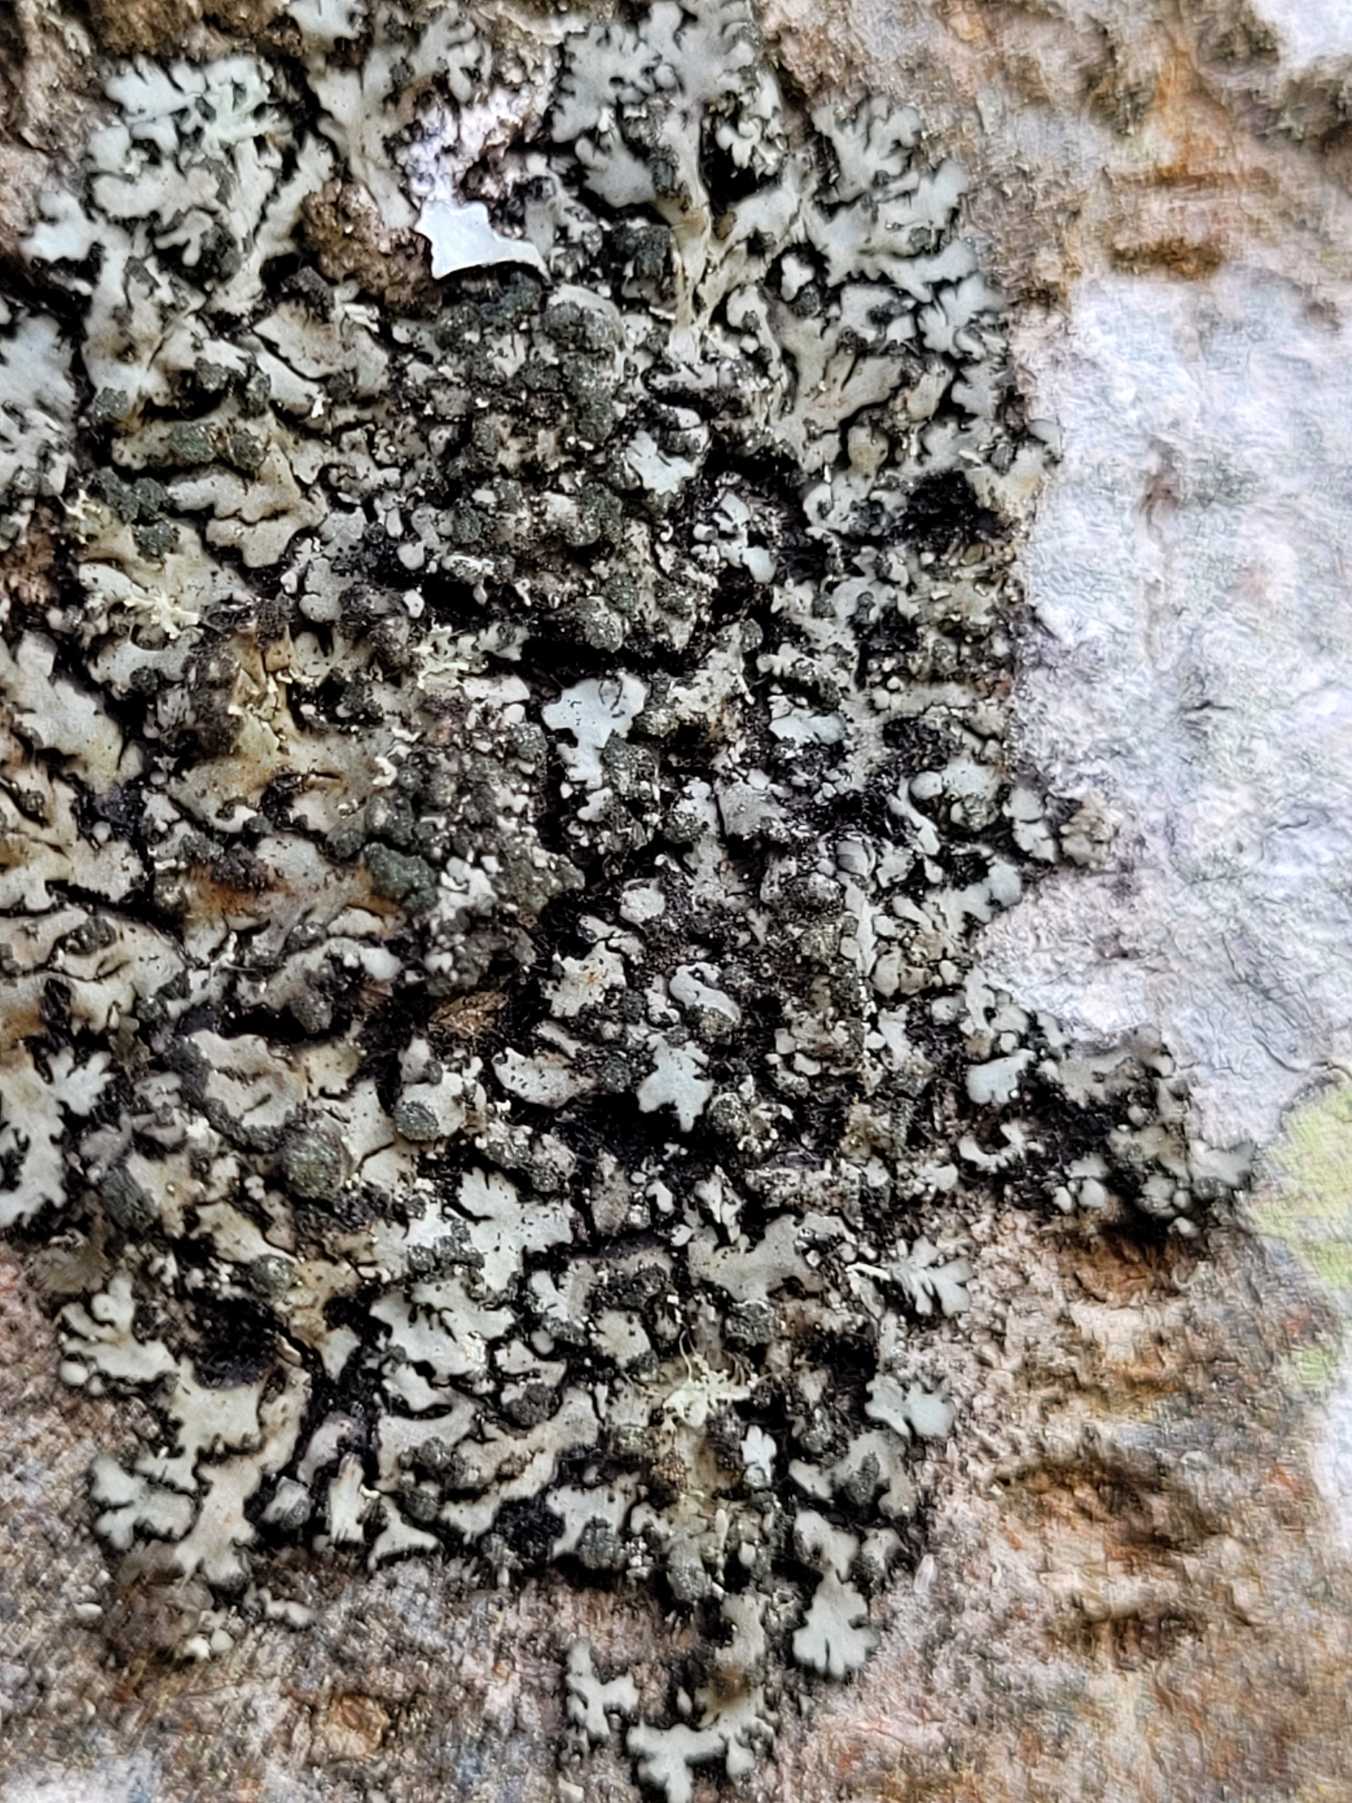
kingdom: Fungi
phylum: Ascomycota
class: Lecanoromycetes
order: Caliciales
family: Physciaceae
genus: Phaeophyscia
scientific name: Phaeophyscia orbicularis
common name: Grågrøn rosetlav
